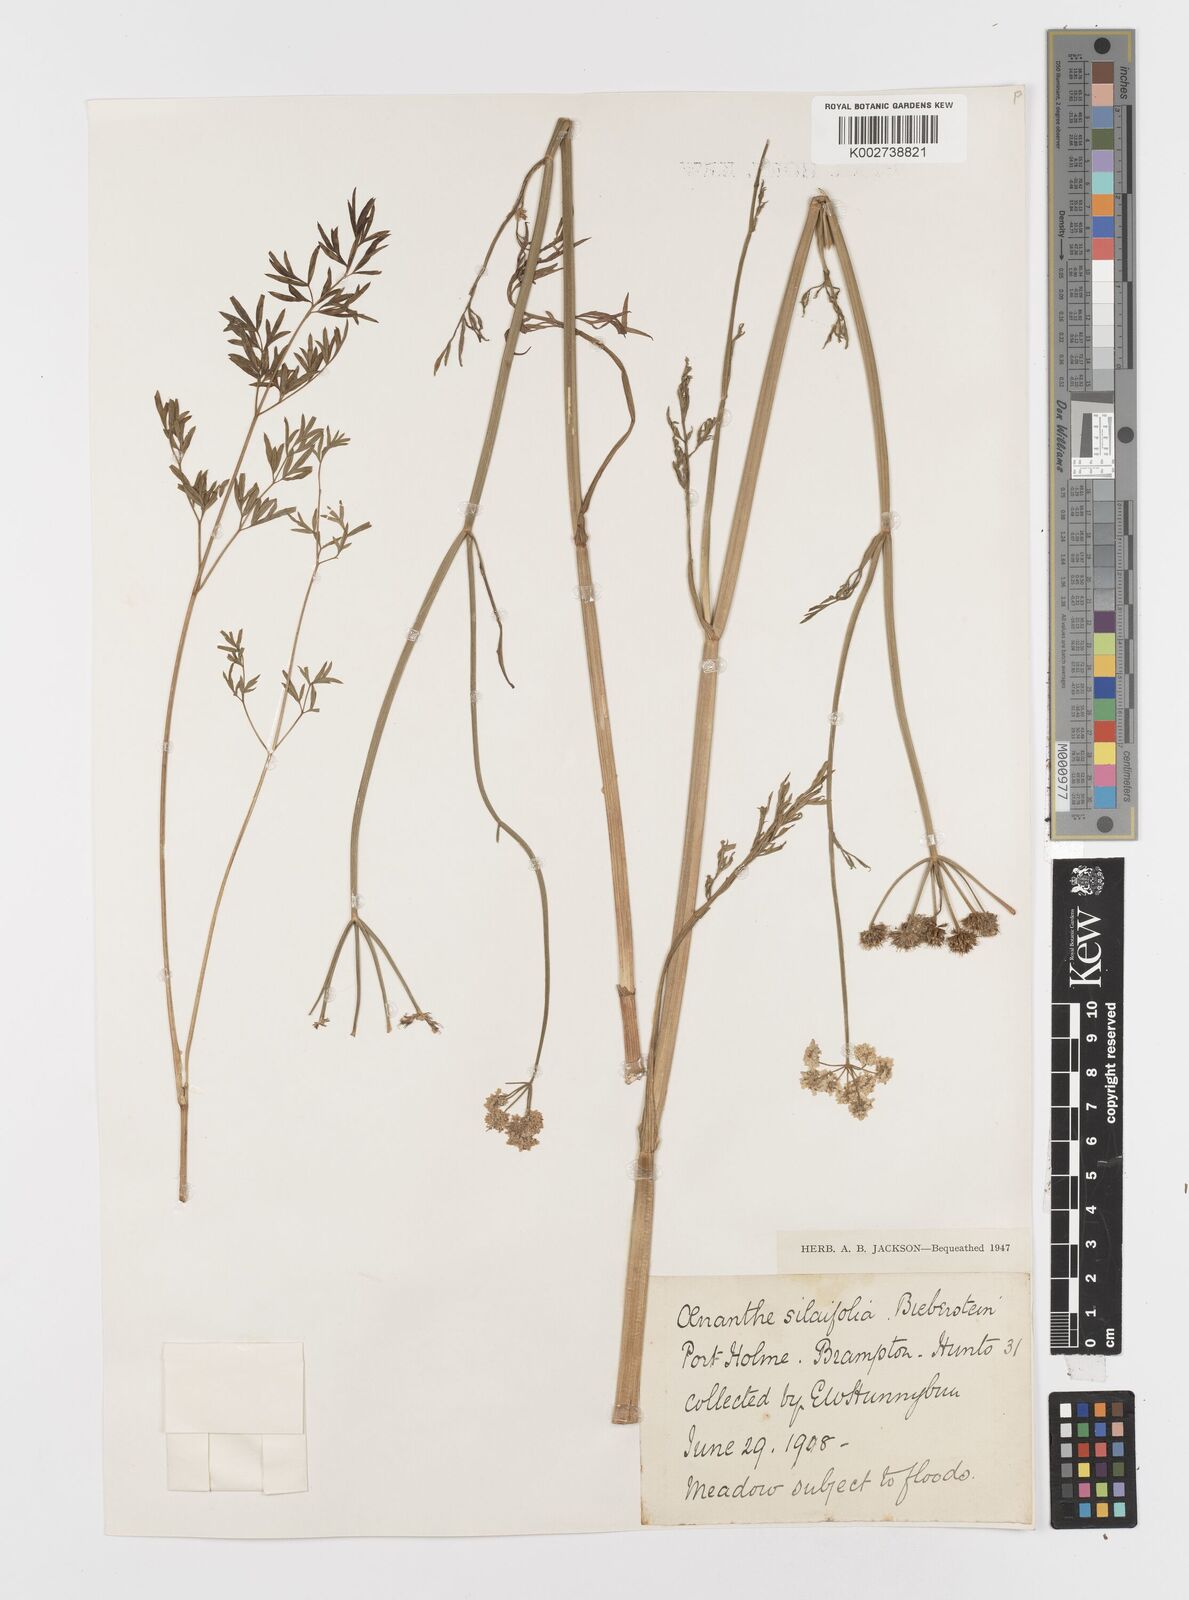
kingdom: Plantae
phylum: Tracheophyta
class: Magnoliopsida
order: Apiales
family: Apiaceae
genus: Oenanthe
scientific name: Oenanthe silaifolia
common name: Narrow-leaved water-dropwort
